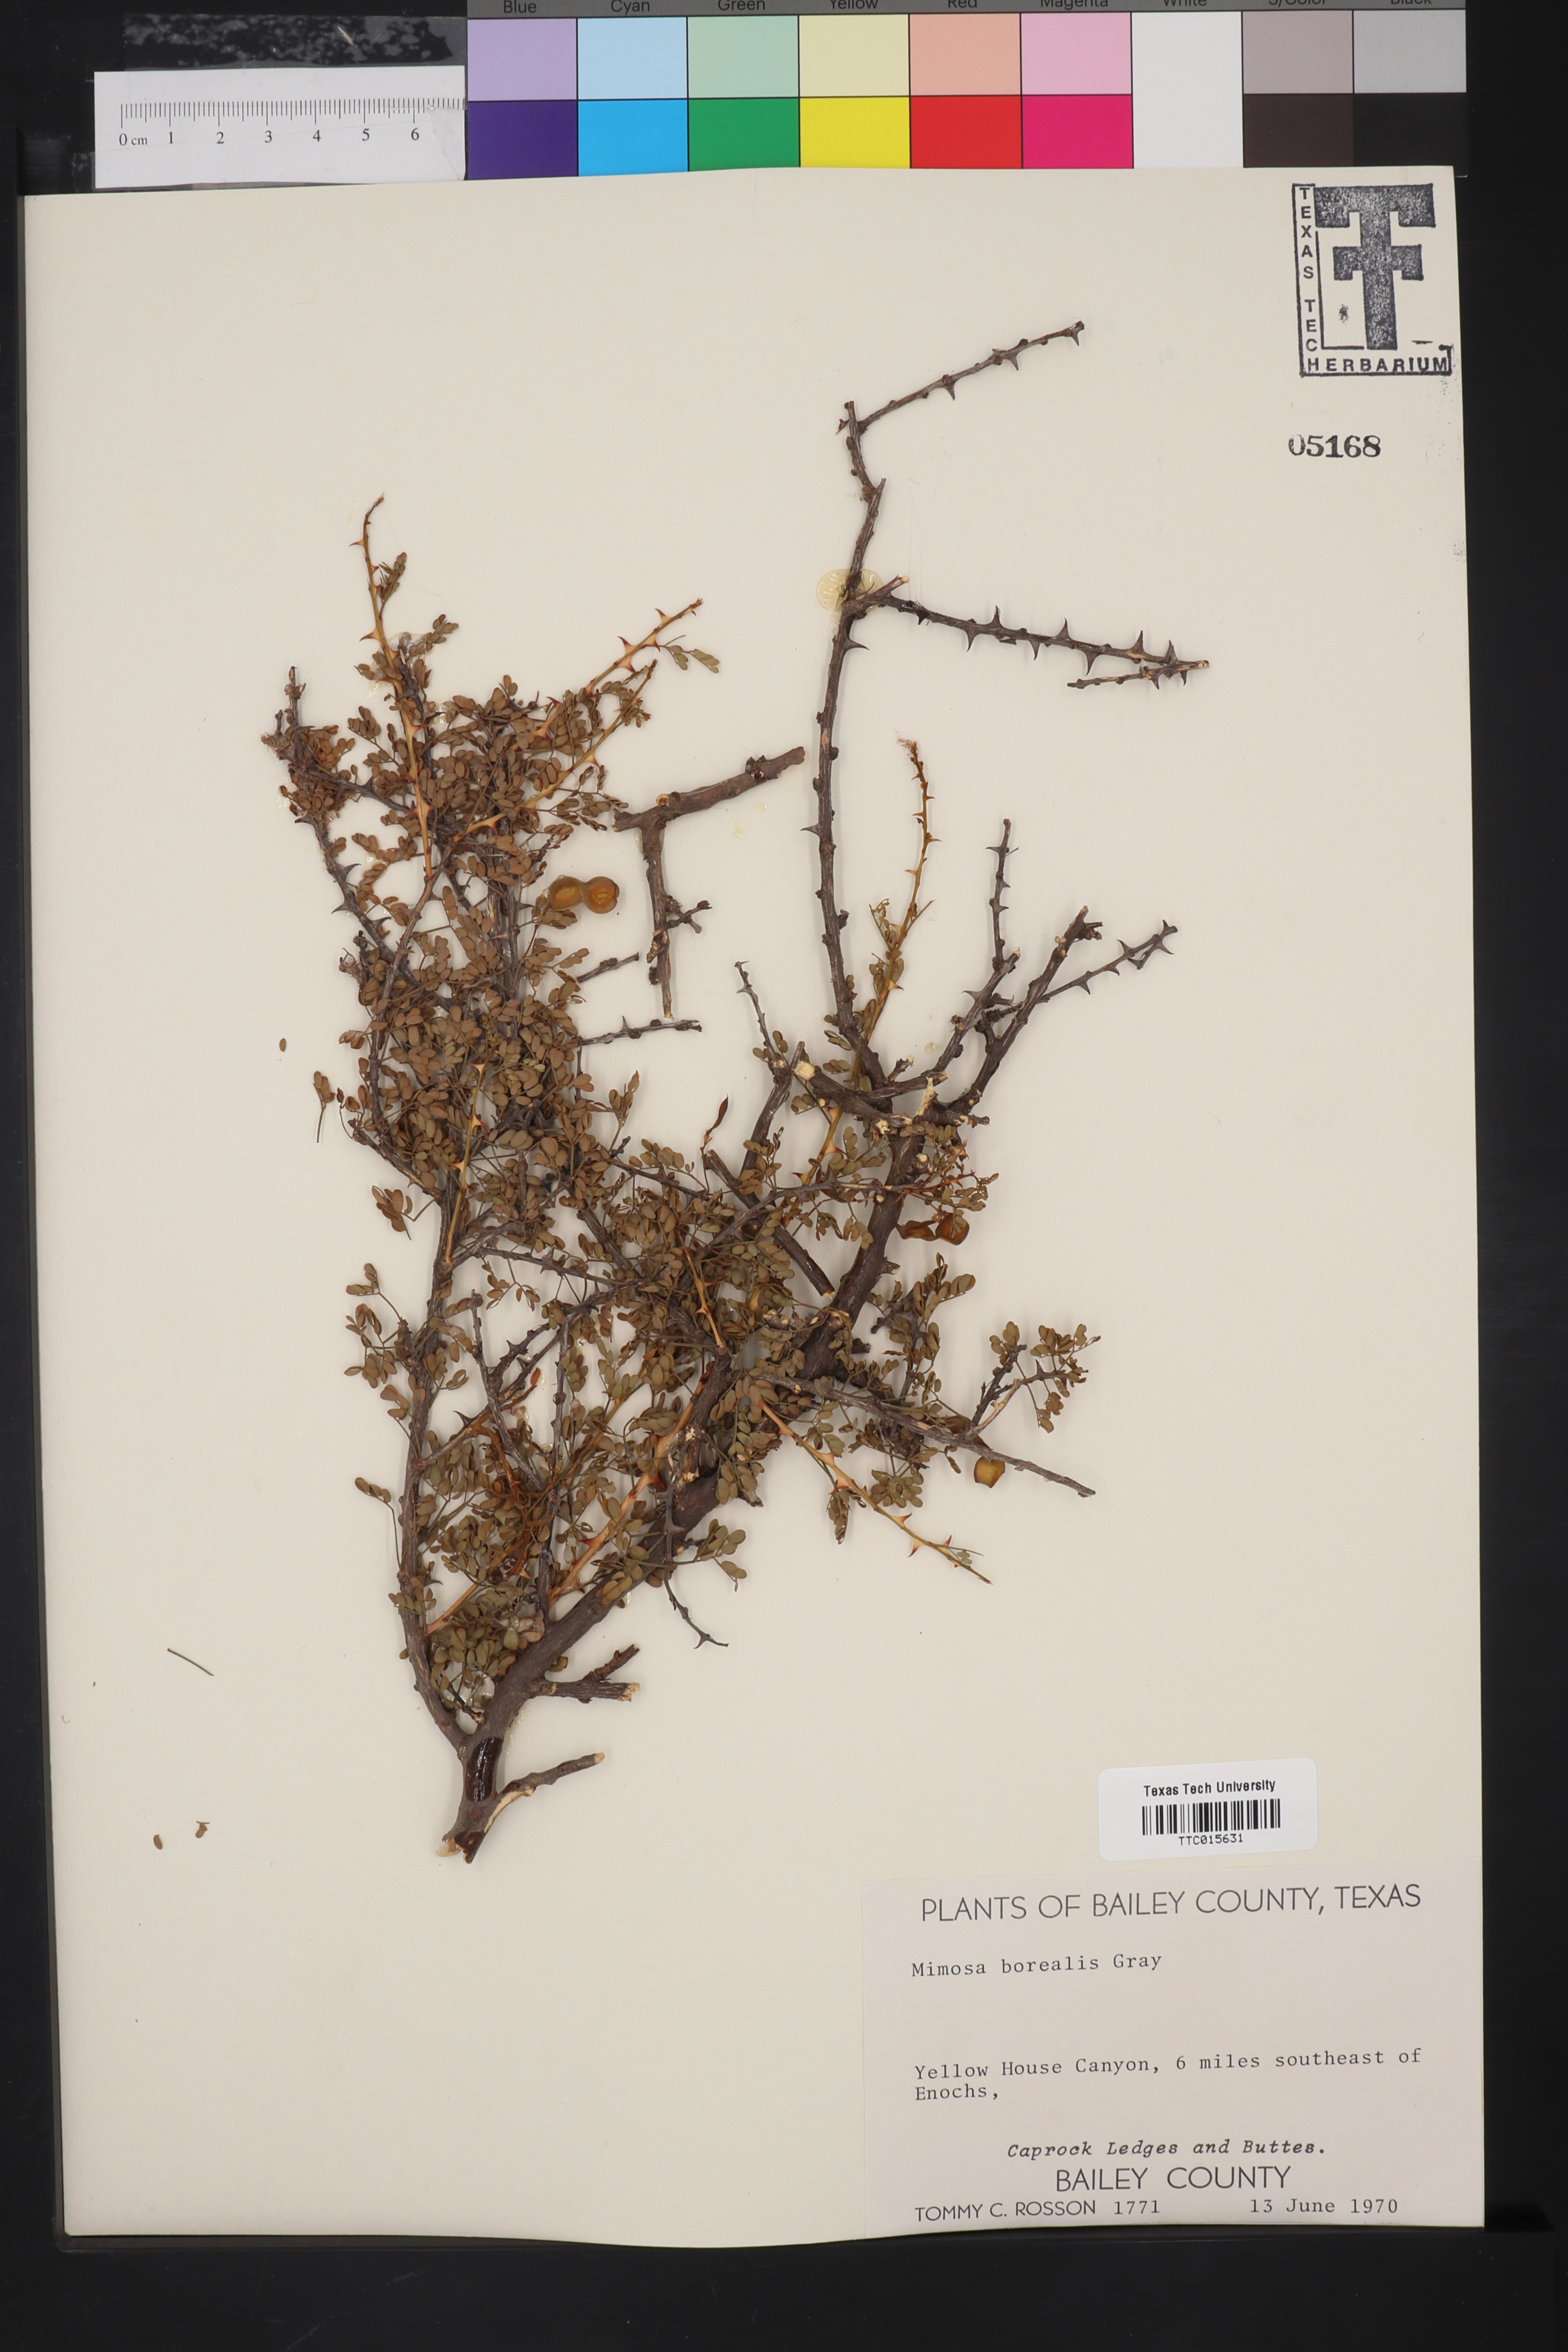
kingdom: Plantae
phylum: Tracheophyta
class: Magnoliopsida
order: Fabales
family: Fabaceae
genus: Mimosa
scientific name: Mimosa borealis
